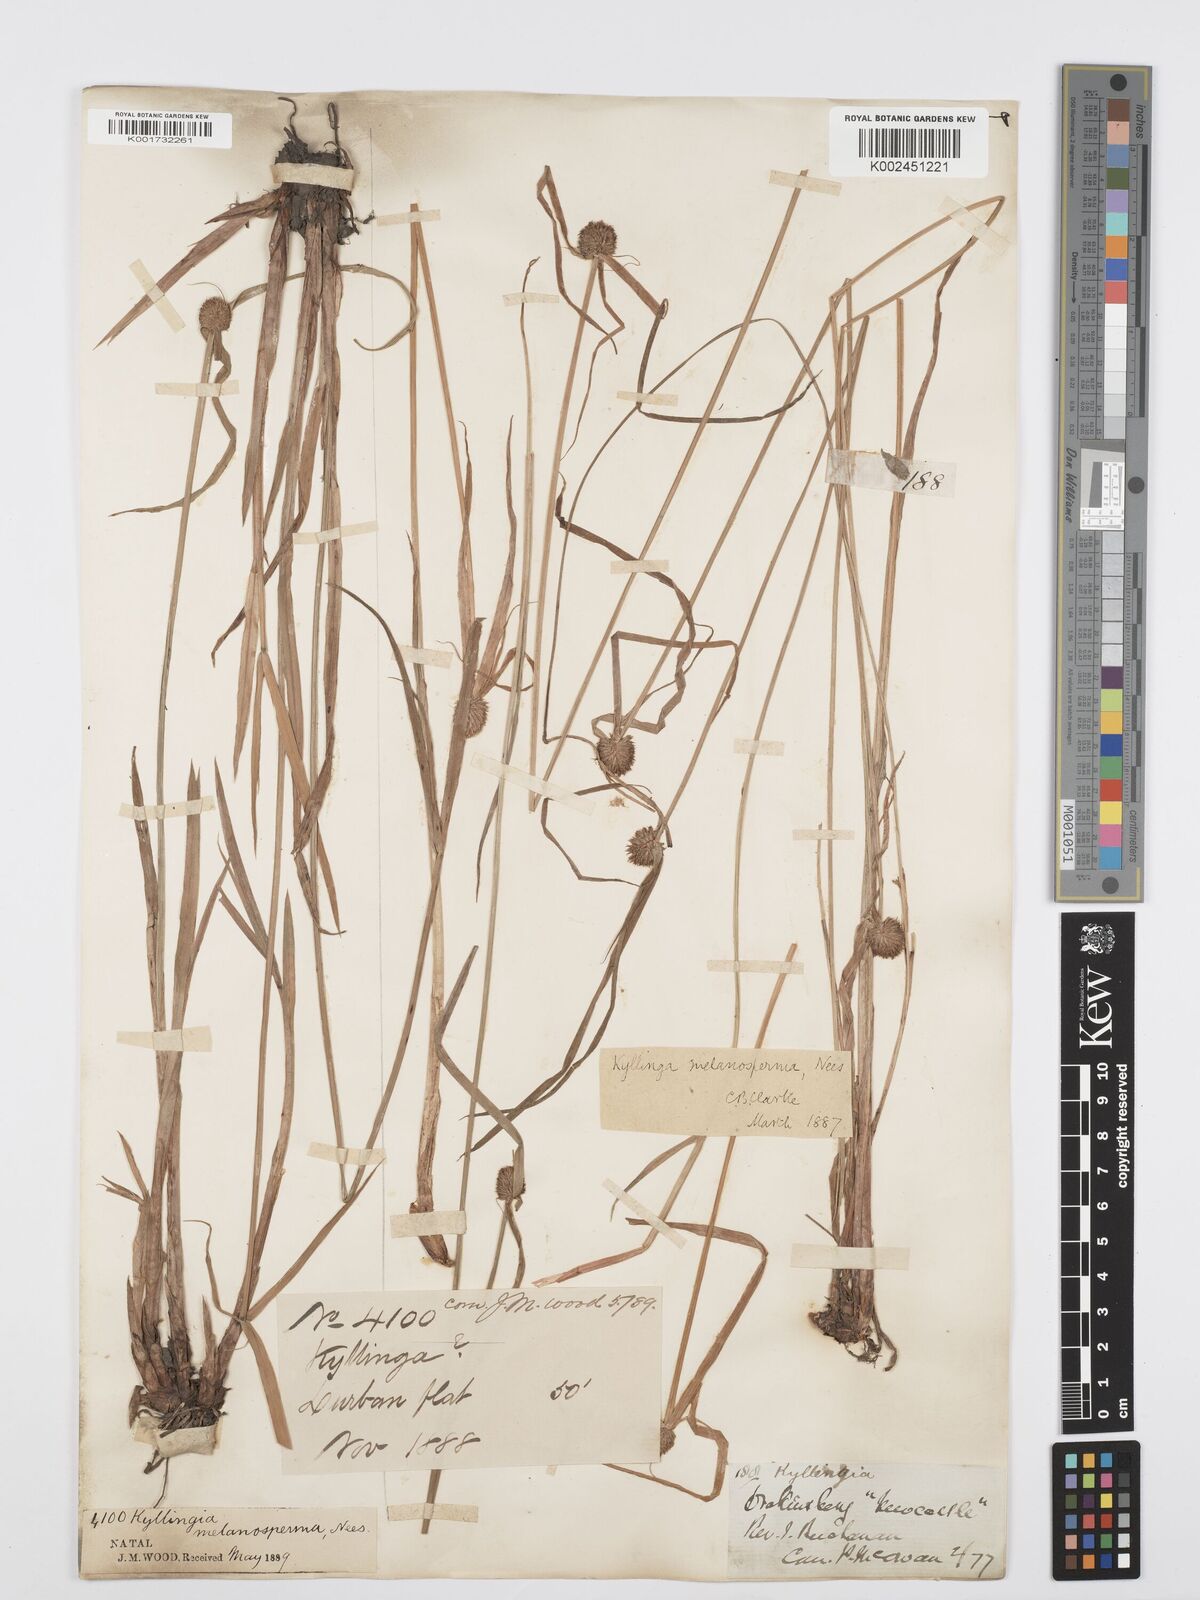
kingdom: Plantae
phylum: Tracheophyta
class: Liliopsida
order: Poales
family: Cyperaceae
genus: Cyperus
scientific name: Cyperus melanospermus
